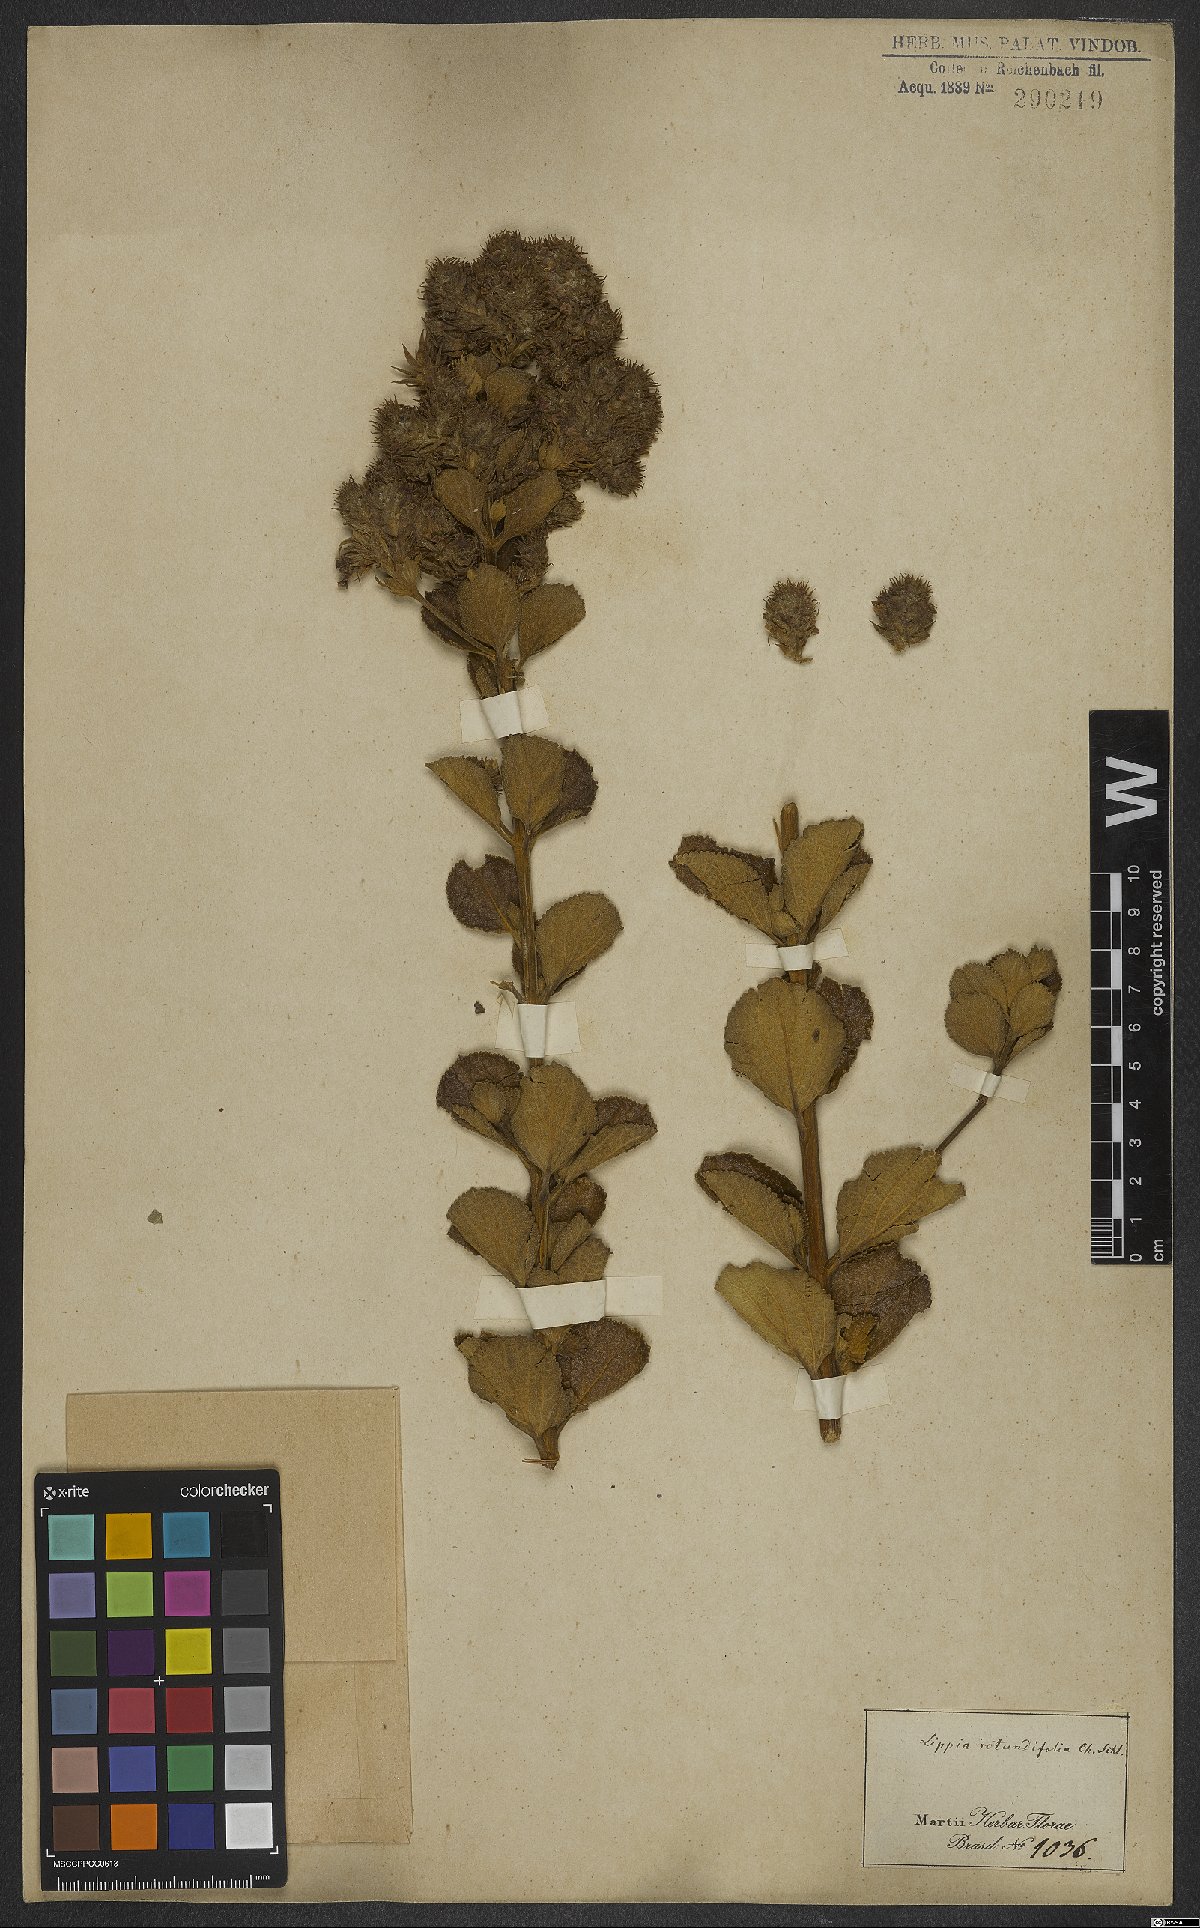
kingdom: Plantae
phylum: Tracheophyta
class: Magnoliopsida
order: Lamiales
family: Verbenaceae
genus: Lippia
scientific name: Lippia rotundifolia
